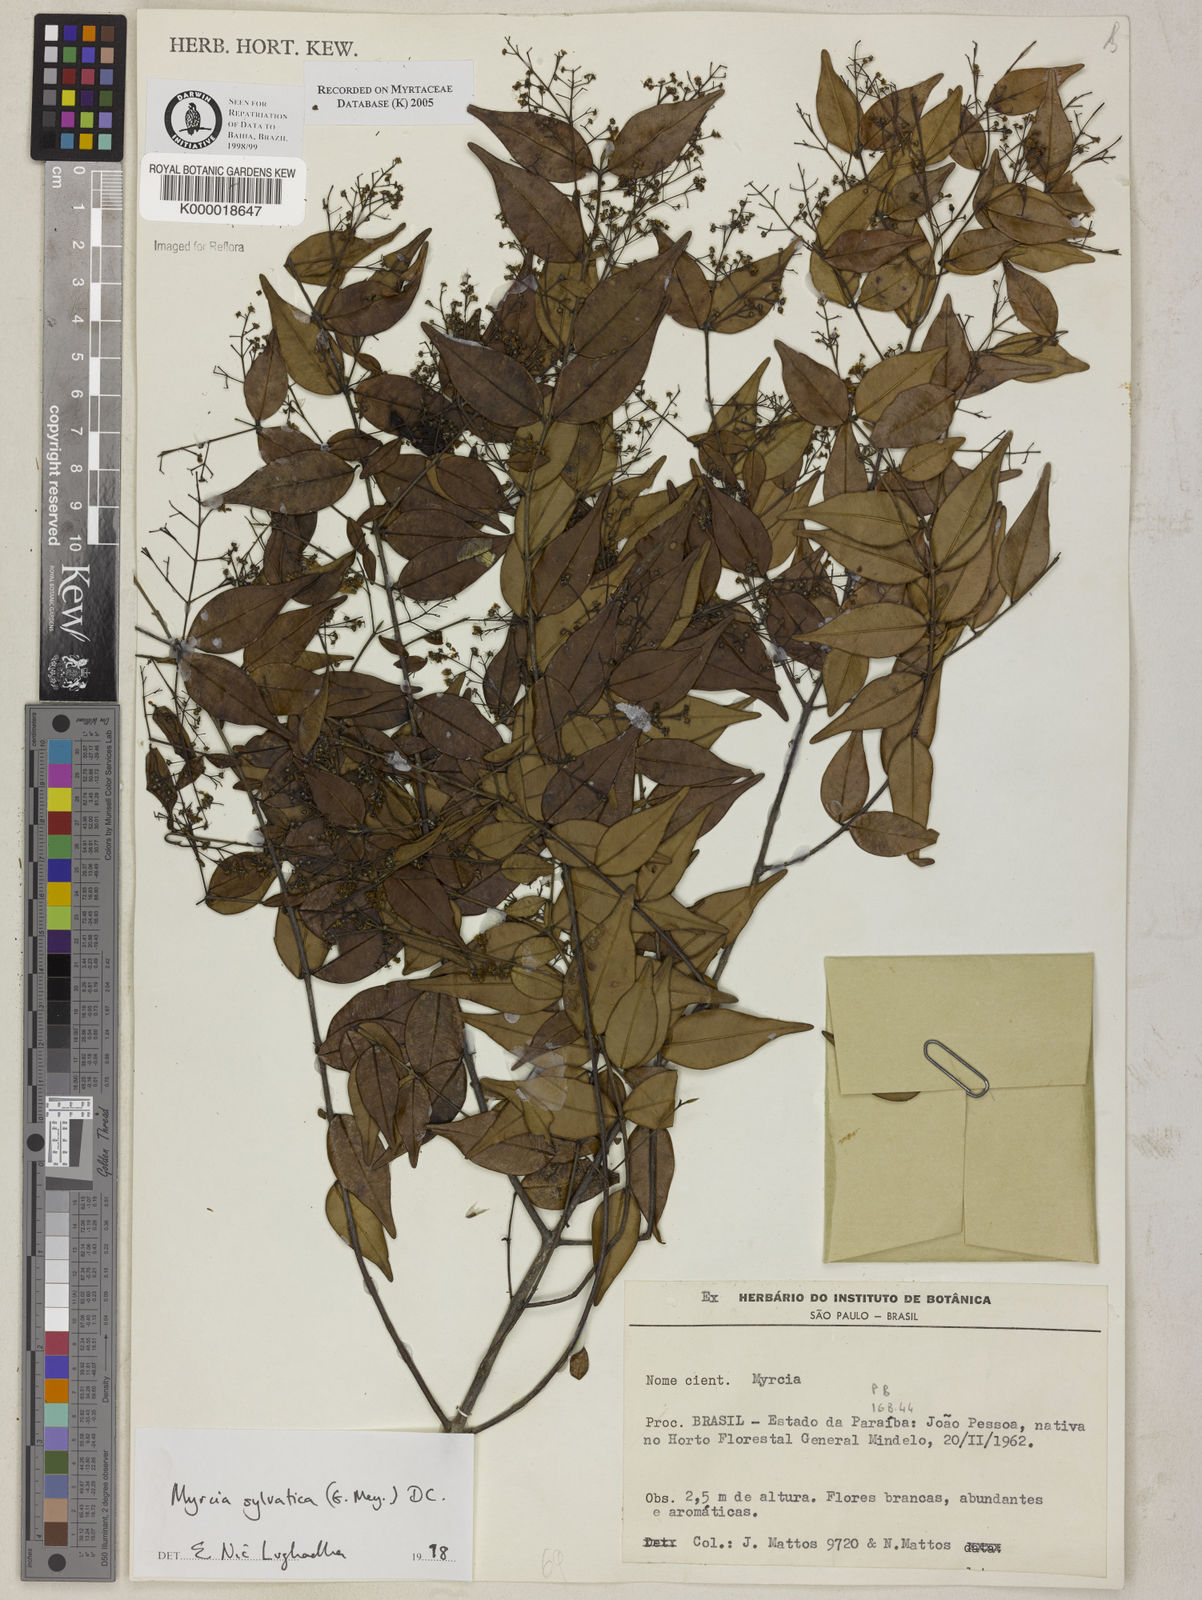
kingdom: Plantae
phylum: Tracheophyta
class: Magnoliopsida
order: Myrtales
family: Myrtaceae
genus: Myrcia
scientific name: Myrcia sylvatica
